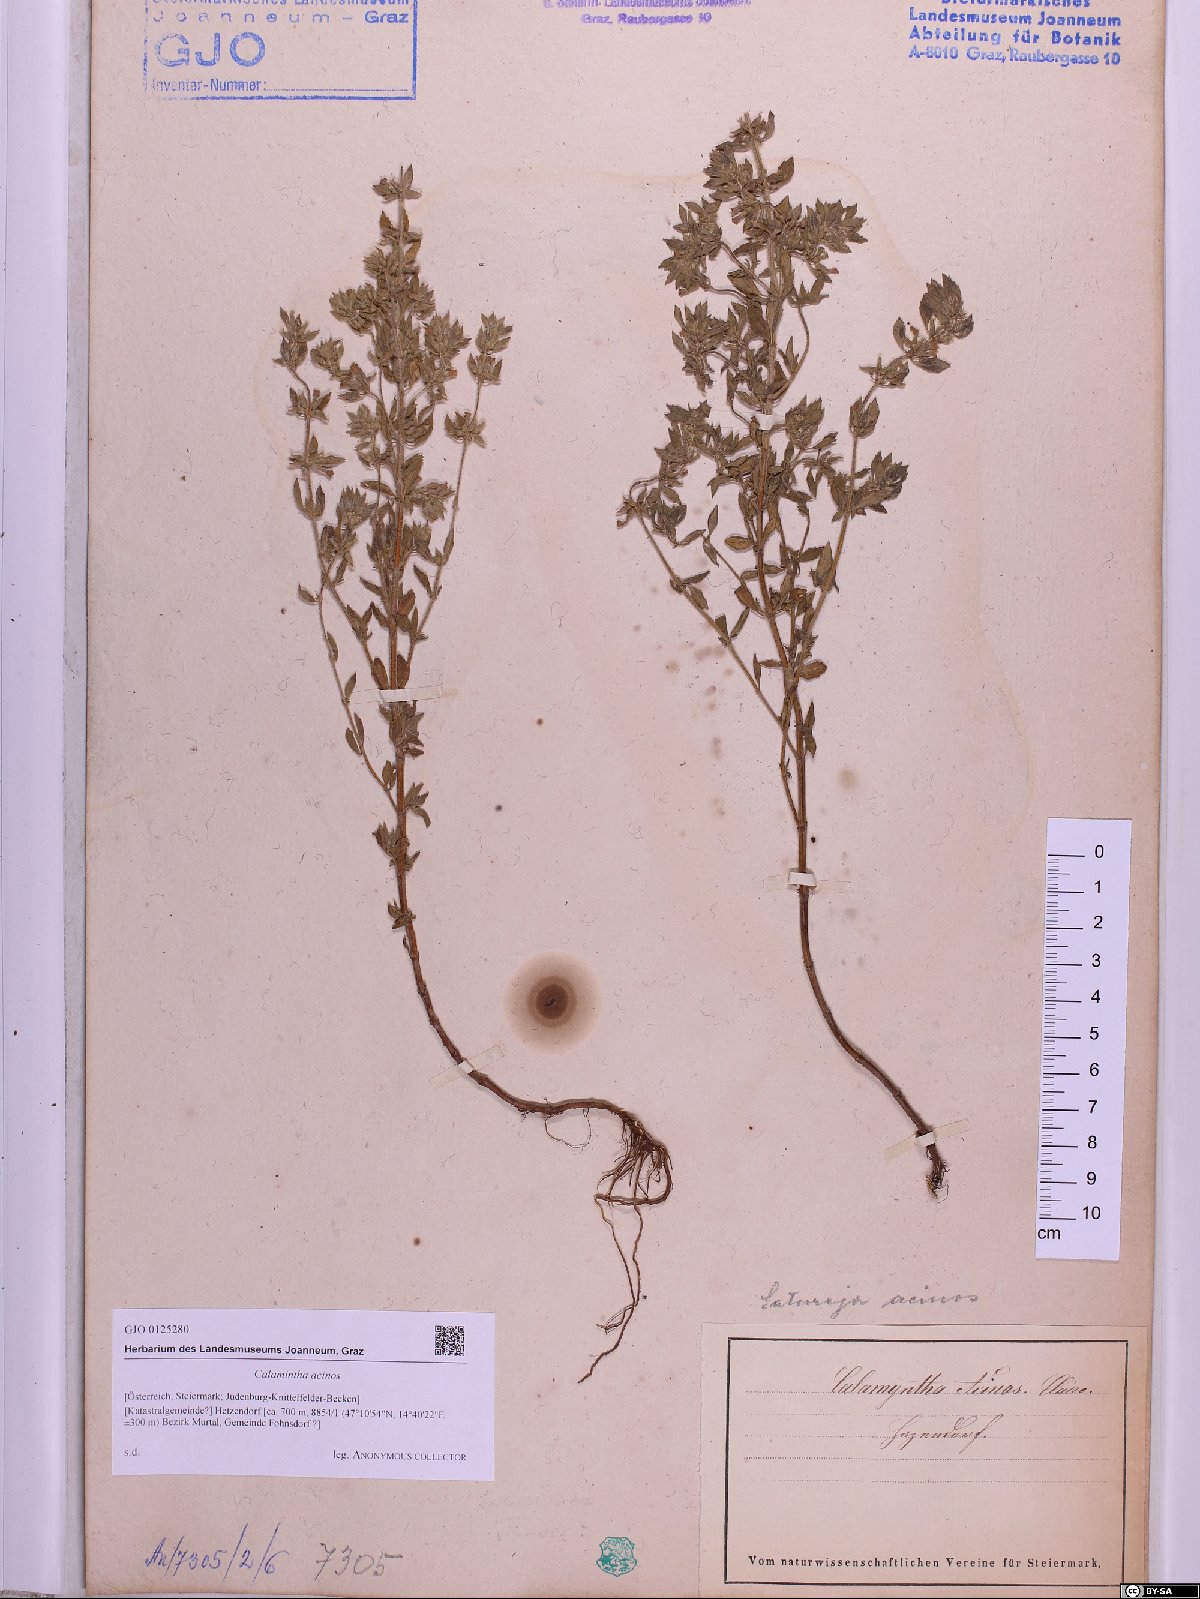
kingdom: Plantae
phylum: Tracheophyta
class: Magnoliopsida
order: Lamiales
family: Lamiaceae
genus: Clinopodium
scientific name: Clinopodium acinos
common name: Basil thyme
